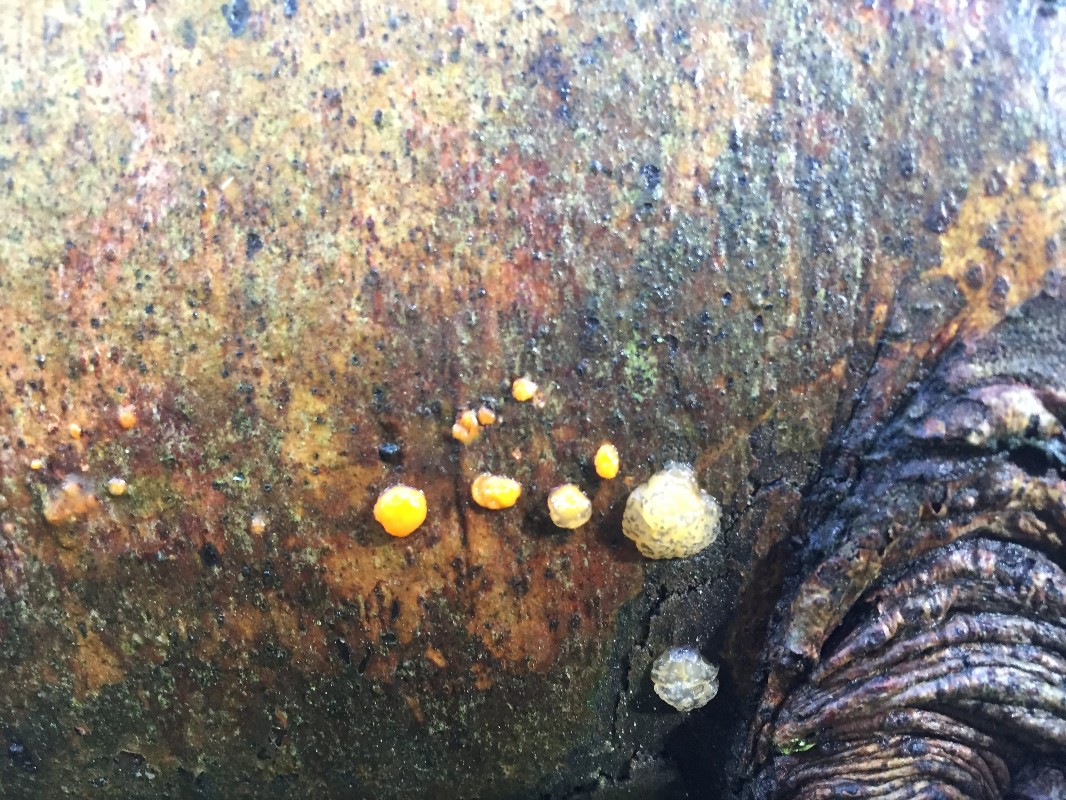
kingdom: Fungi
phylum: Basidiomycota
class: Dacrymycetes
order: Dacrymycetales
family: Dacrymycetaceae
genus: Dacrymyces
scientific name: Dacrymyces stillatus
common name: almindelig tåresvamp
